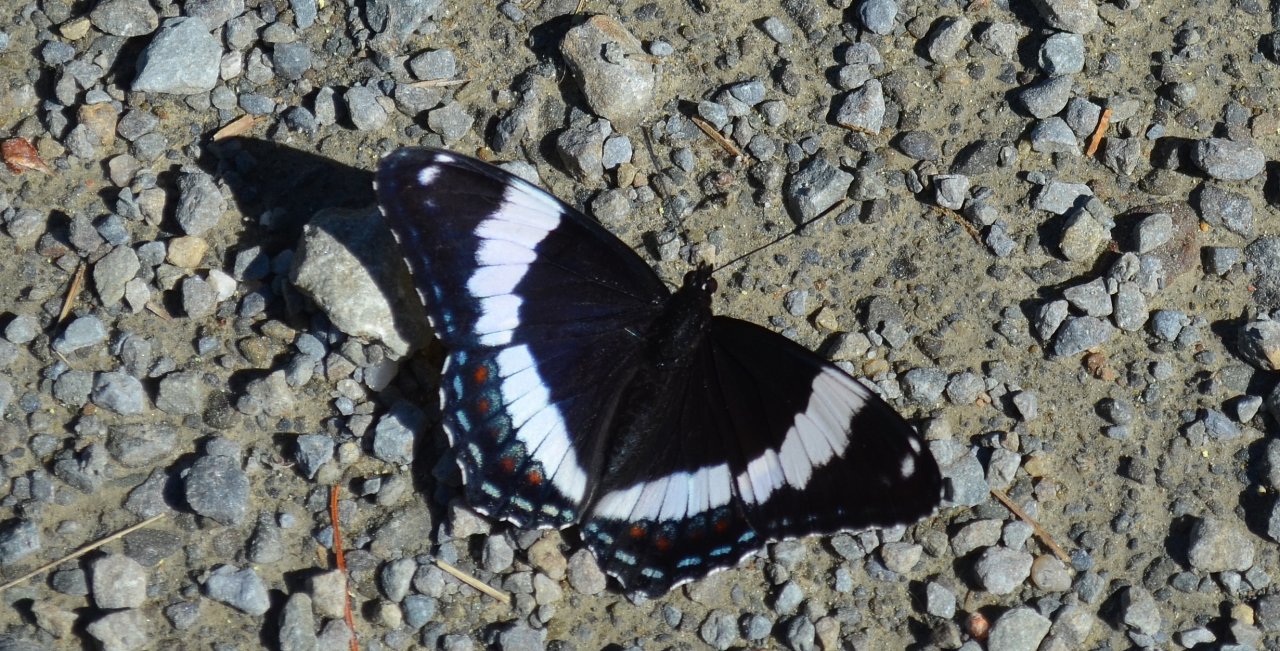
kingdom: Animalia
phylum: Arthropoda
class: Insecta
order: Lepidoptera
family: Nymphalidae
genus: Limenitis
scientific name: Limenitis arthemis
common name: Red-spotted Admiral
